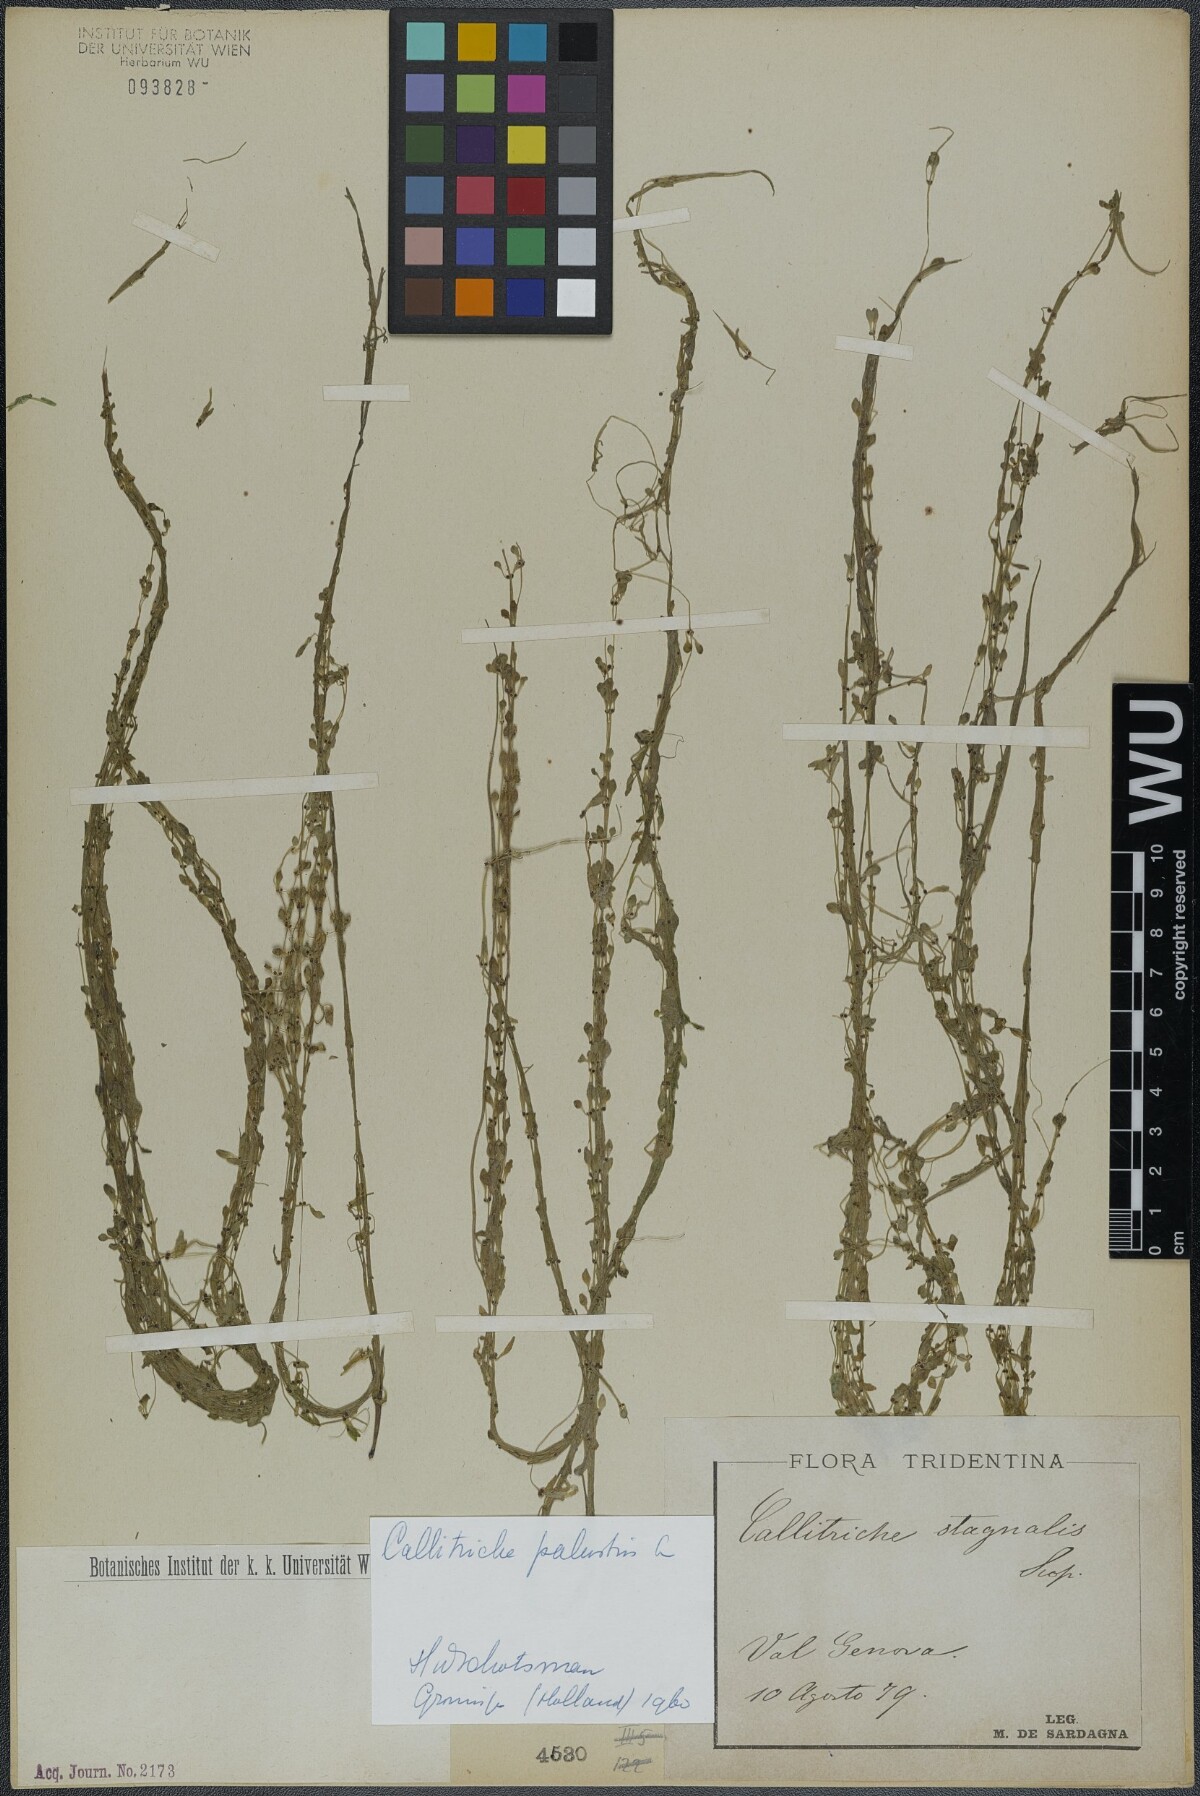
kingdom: Plantae
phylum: Tracheophyta
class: Magnoliopsida
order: Lamiales
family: Plantaginaceae
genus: Callitriche
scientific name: Callitriche palustris
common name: Spring water-starwort
